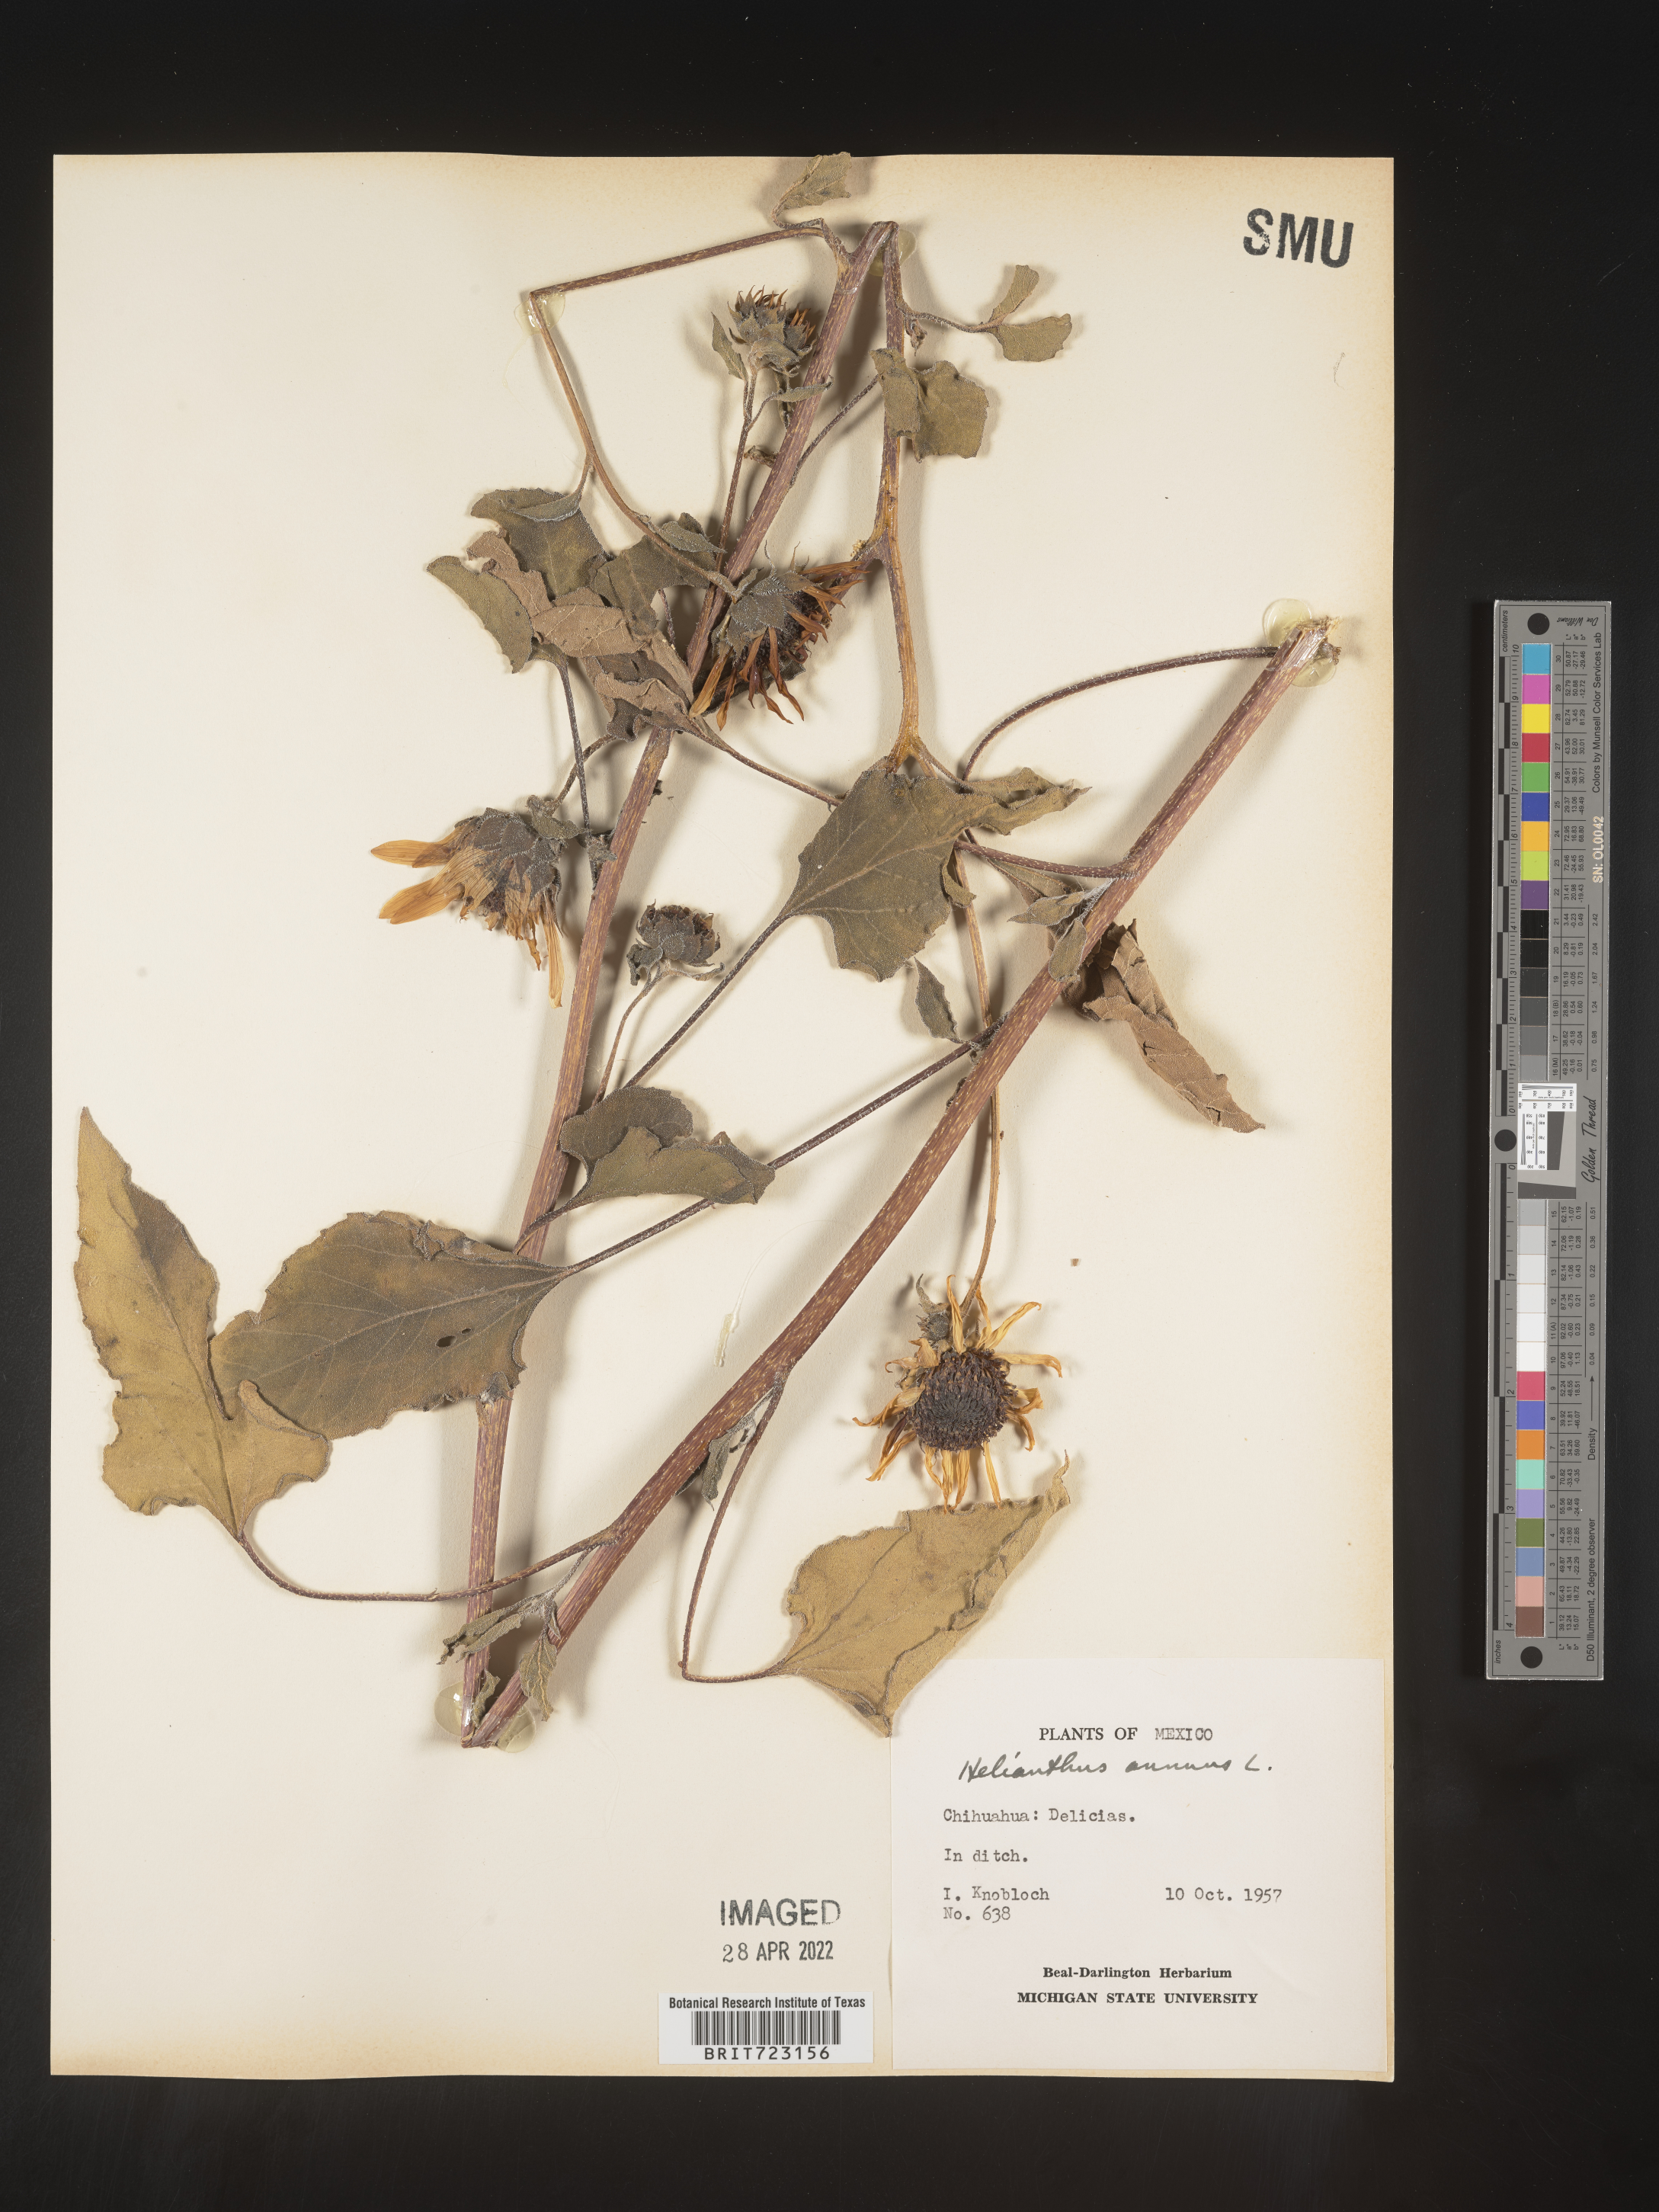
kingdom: Plantae
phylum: Tracheophyta
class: Magnoliopsida
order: Asterales
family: Asteraceae
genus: Helianthus
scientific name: Helianthus
